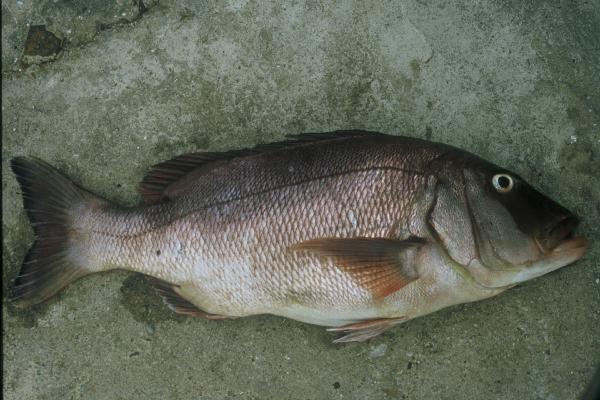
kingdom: Animalia
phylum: Chordata
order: Perciformes
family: Sparidae
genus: Petrus
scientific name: Petrus rupestris
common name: Red steenbras
